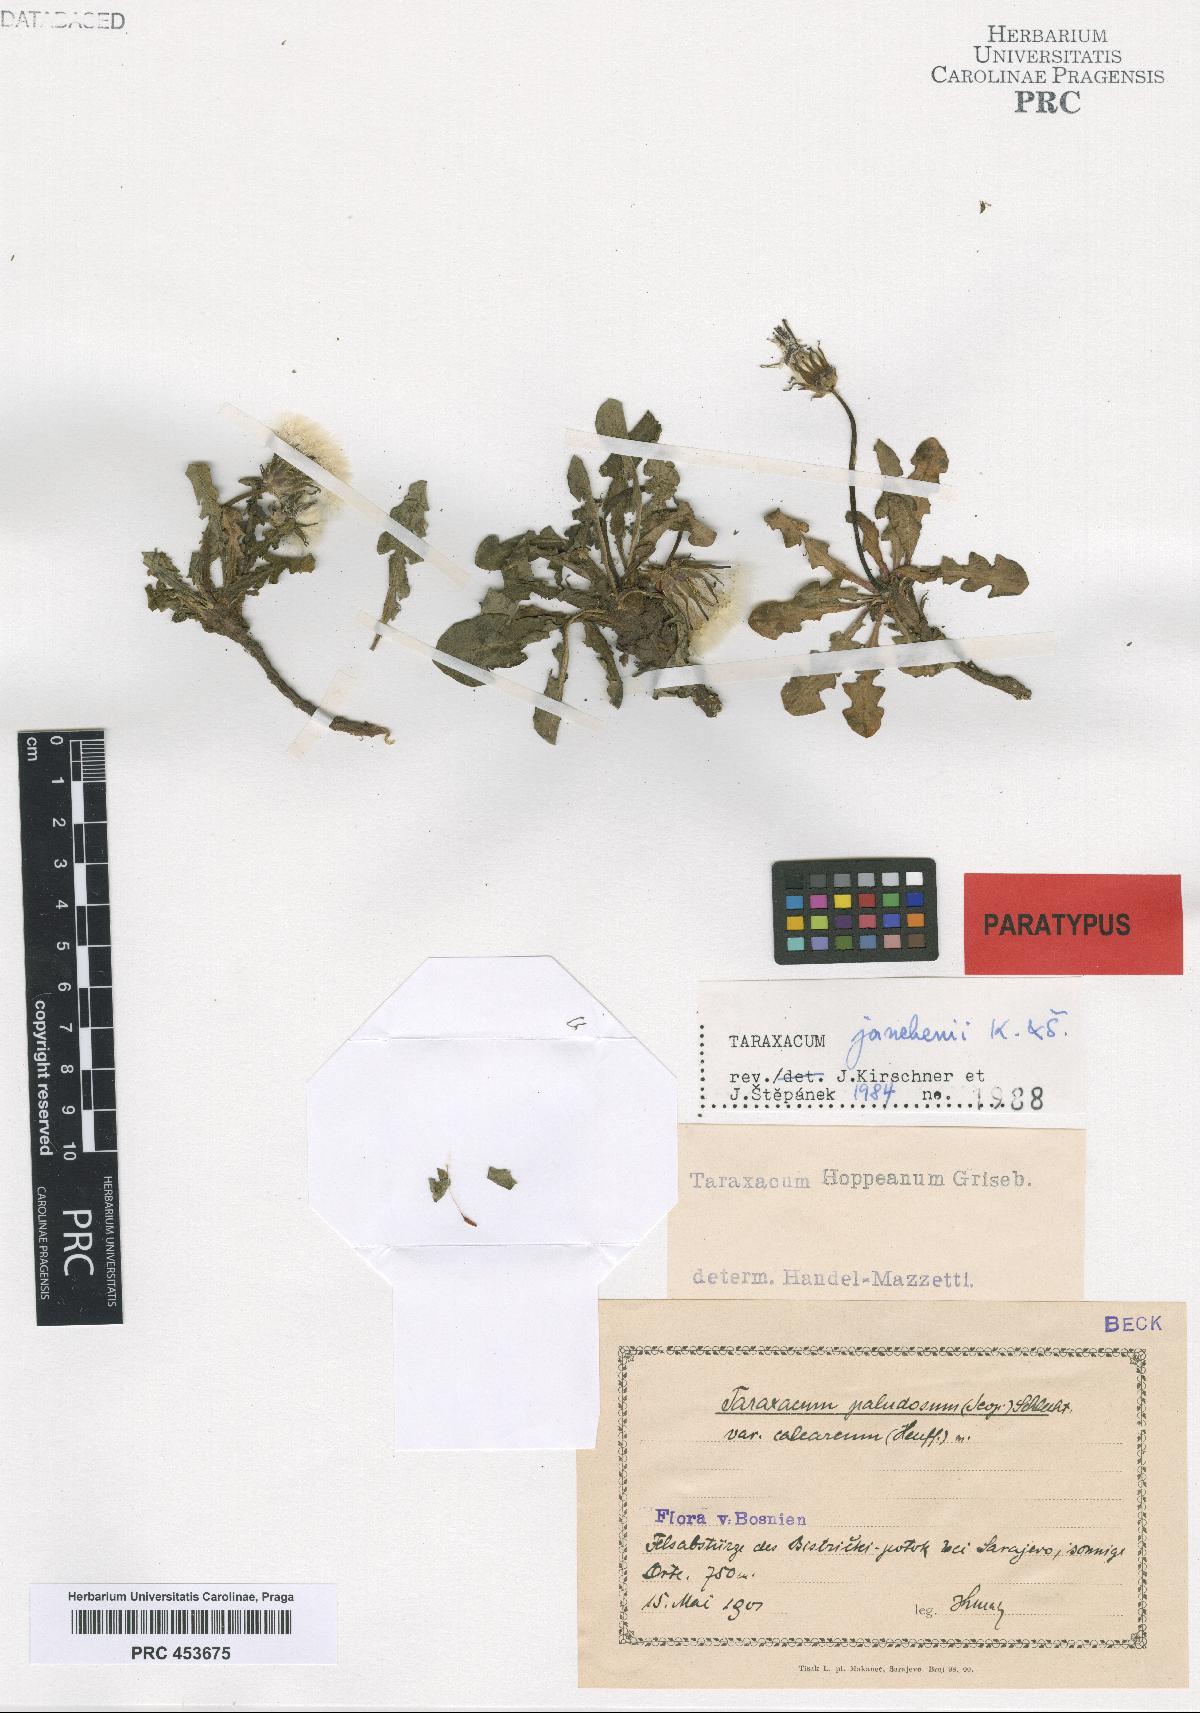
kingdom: Plantae
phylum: Tracheophyta
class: Magnoliopsida
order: Asterales
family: Asteraceae
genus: Taraxacum
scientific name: Taraxacum janchenii
